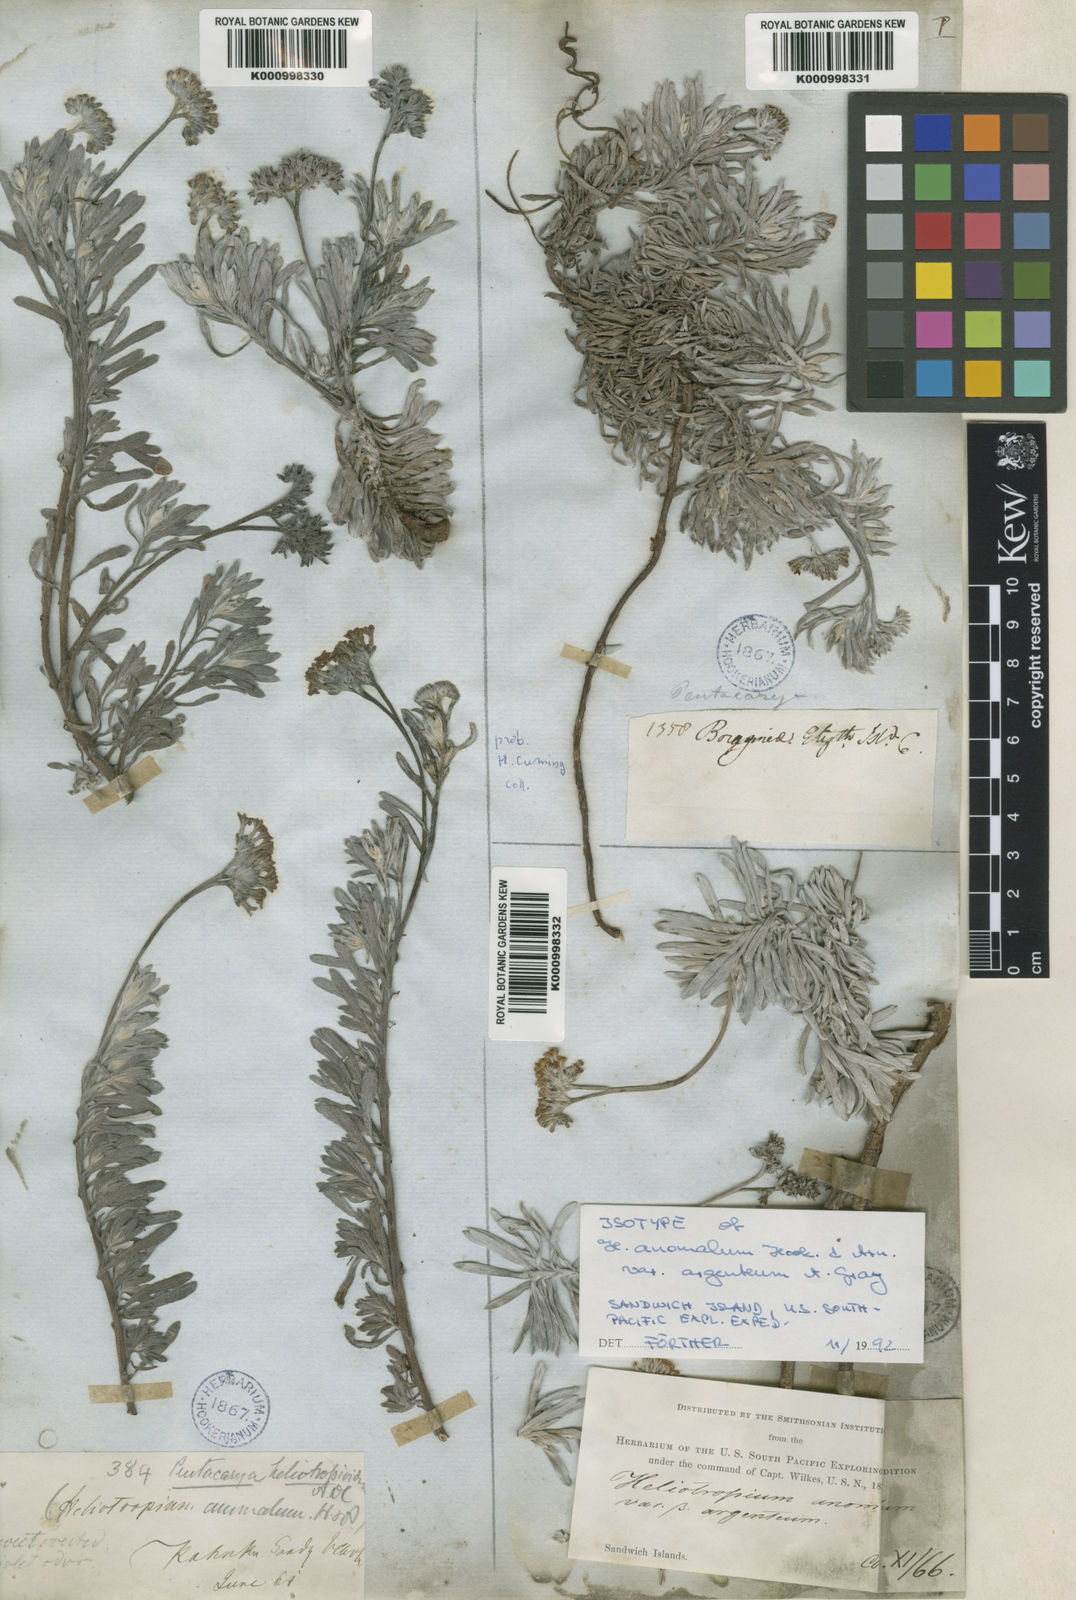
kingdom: Plantae
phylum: Tracheophyta
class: Magnoliopsida
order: Boraginales
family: Heliotropiaceae
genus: Heliotropium
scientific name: Heliotropium anomalum
